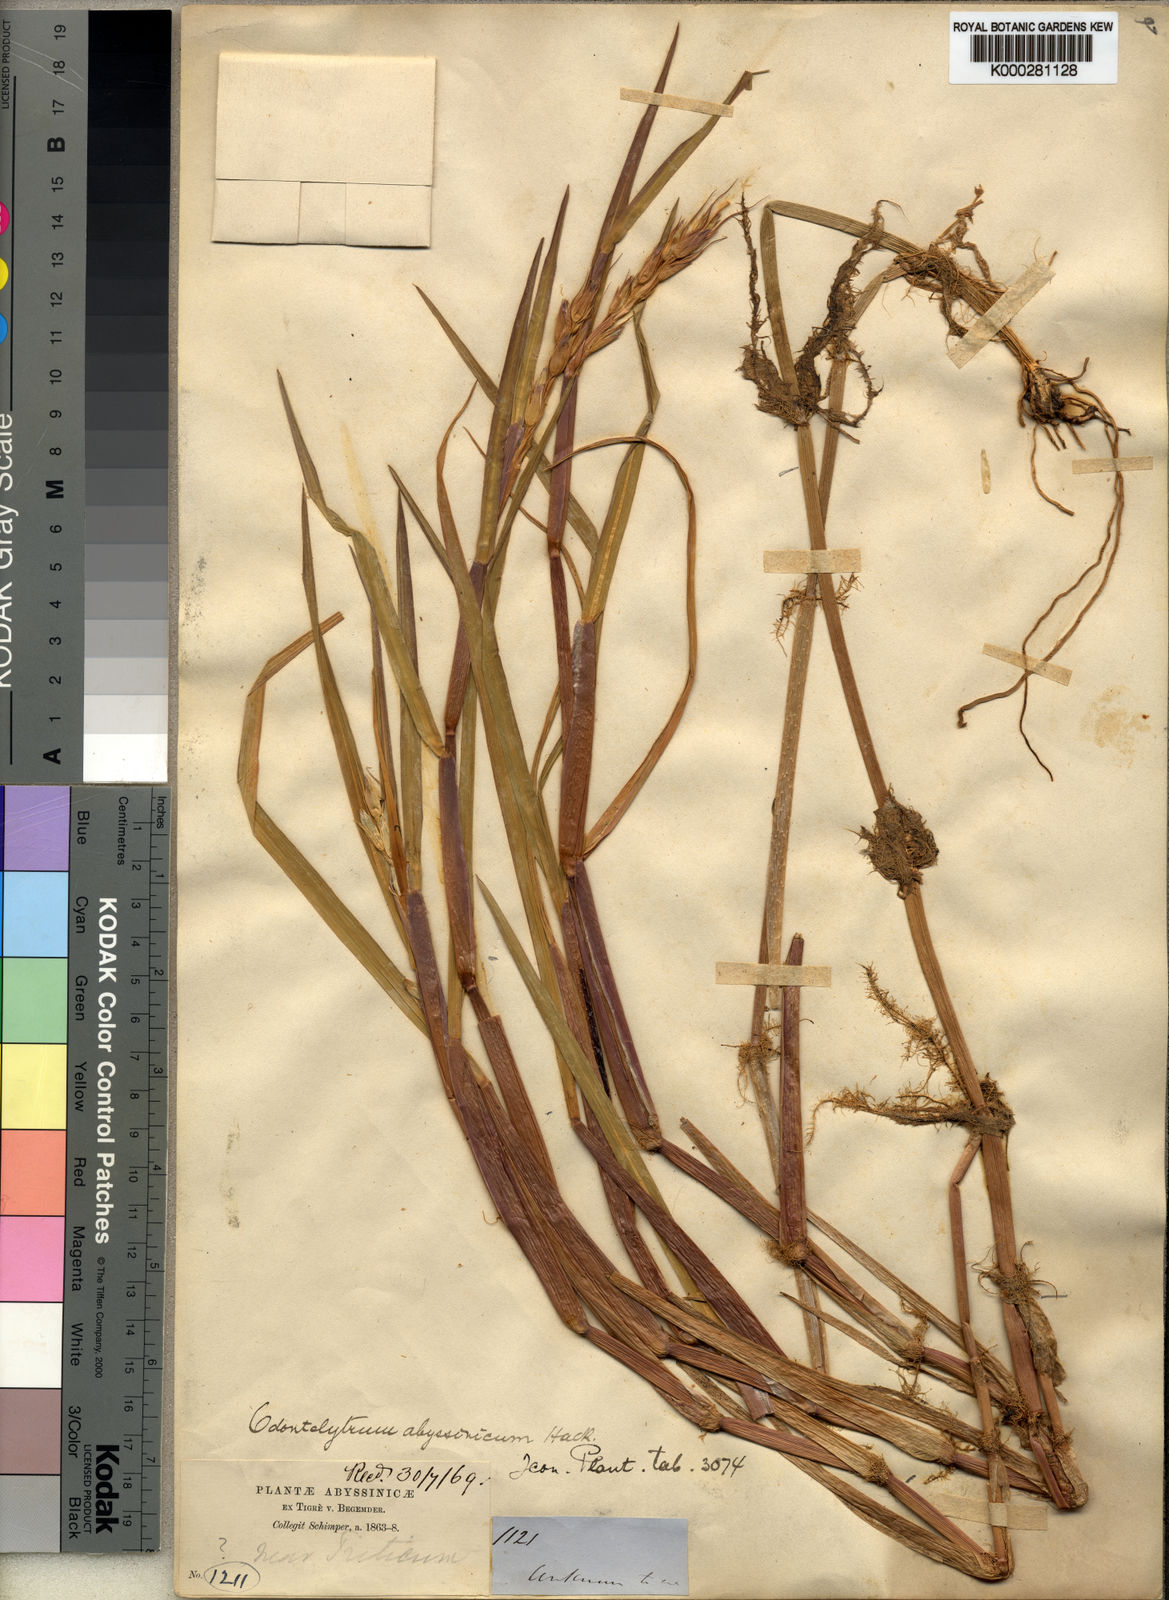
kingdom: Plantae
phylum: Tracheophyta
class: Liliopsida
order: Poales
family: Poaceae
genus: Cenchrus
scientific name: Cenchrus abyssinicus
